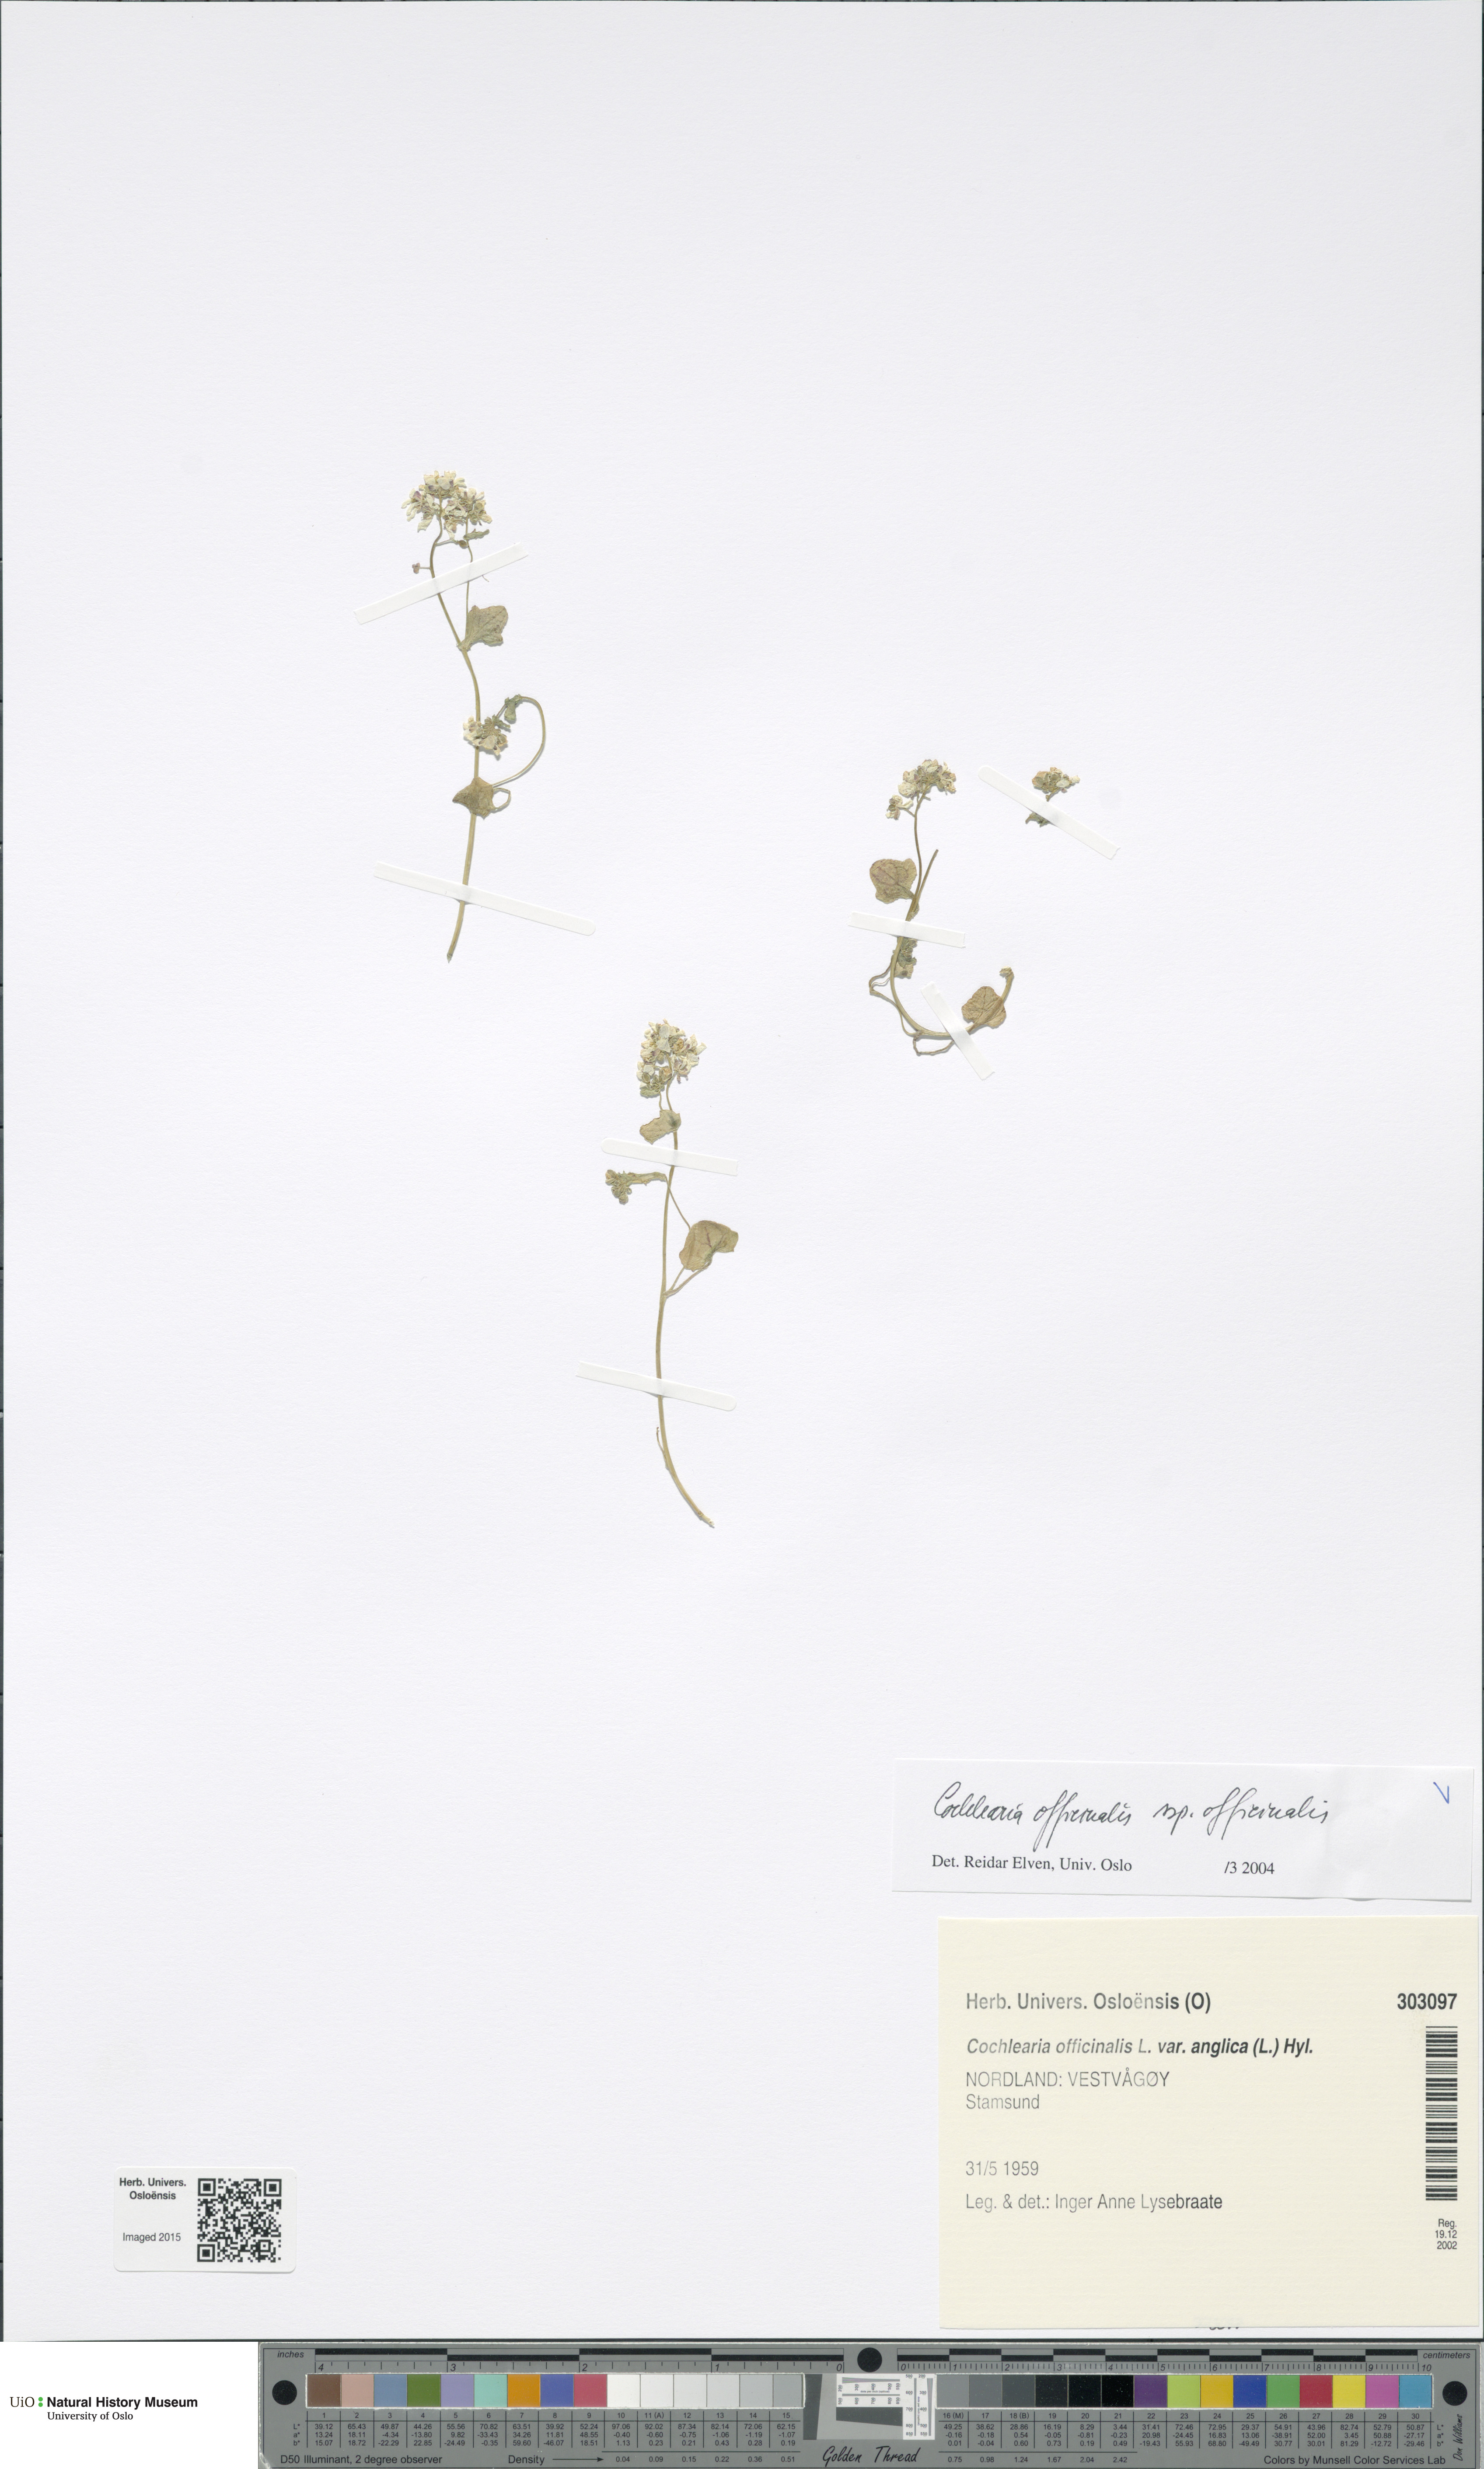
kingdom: Plantae
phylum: Tracheophyta
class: Magnoliopsida
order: Brassicales
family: Brassicaceae
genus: Cochlearia
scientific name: Cochlearia officinalis
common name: Scurvy-grass
